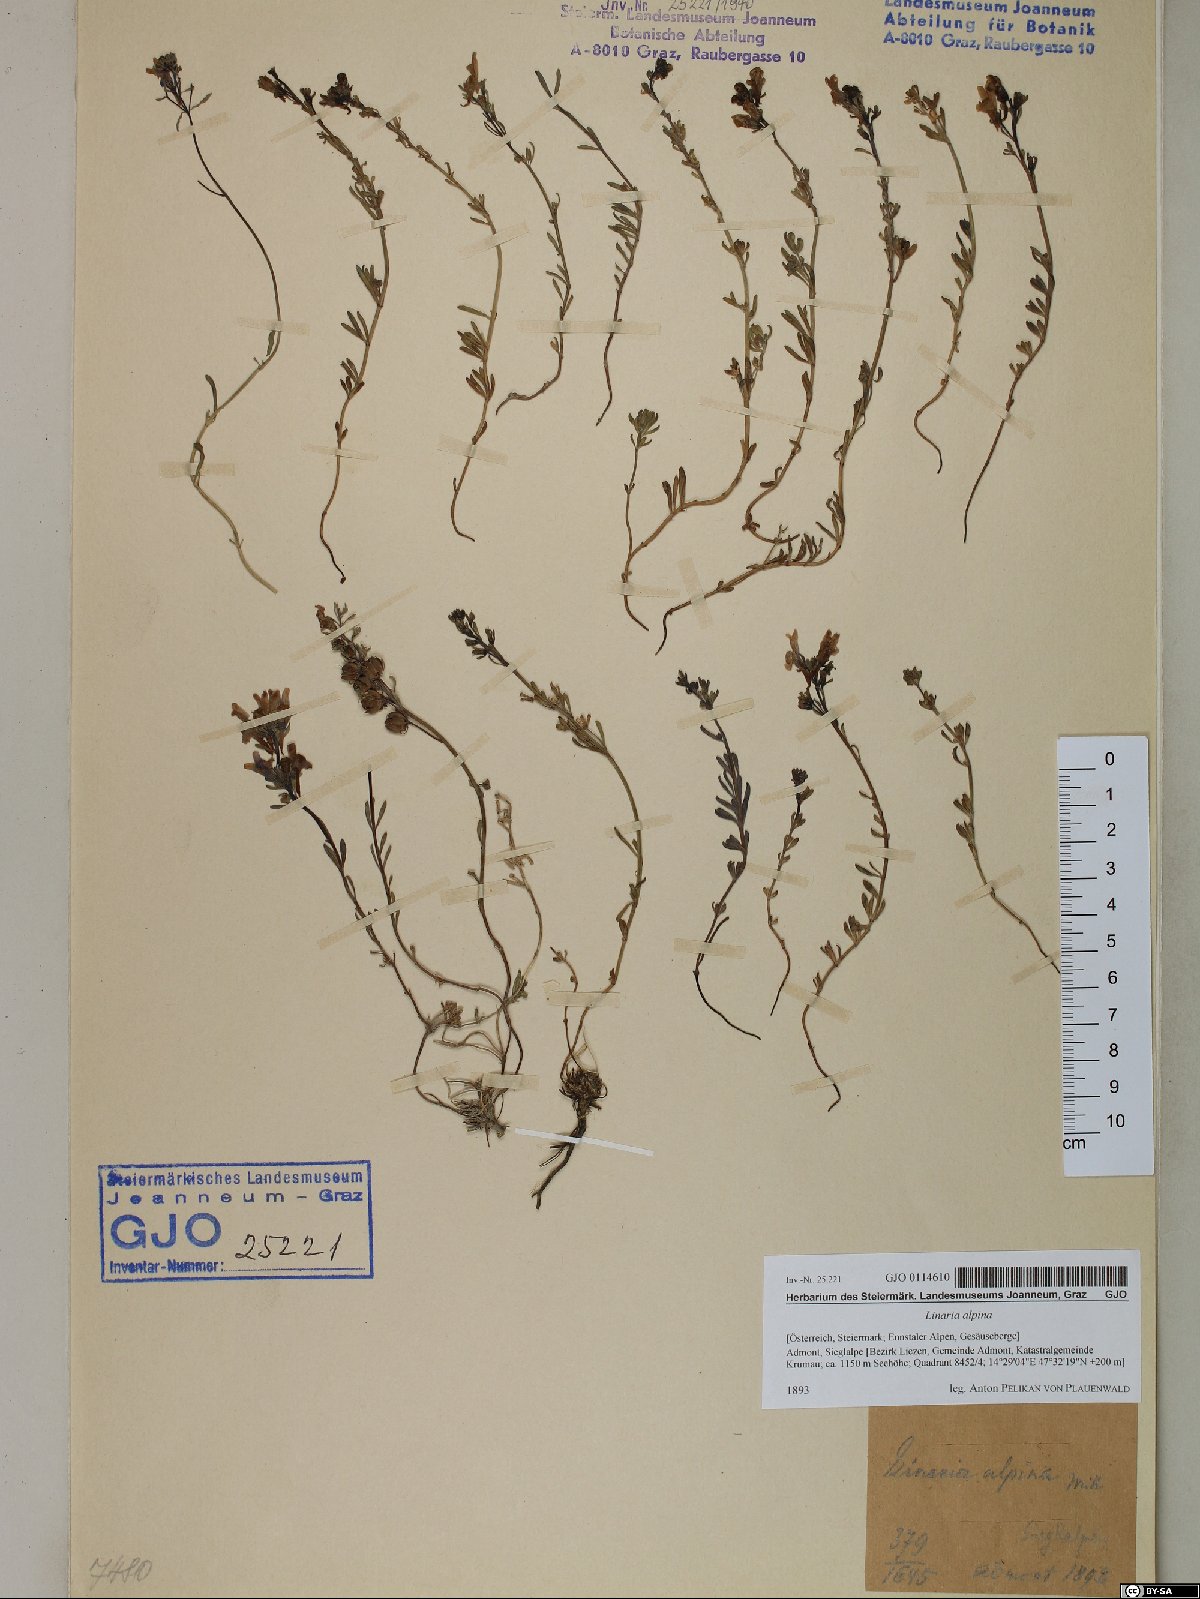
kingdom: Plantae
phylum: Tracheophyta
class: Magnoliopsida
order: Lamiales
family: Plantaginaceae
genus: Linaria
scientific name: Linaria alpina
